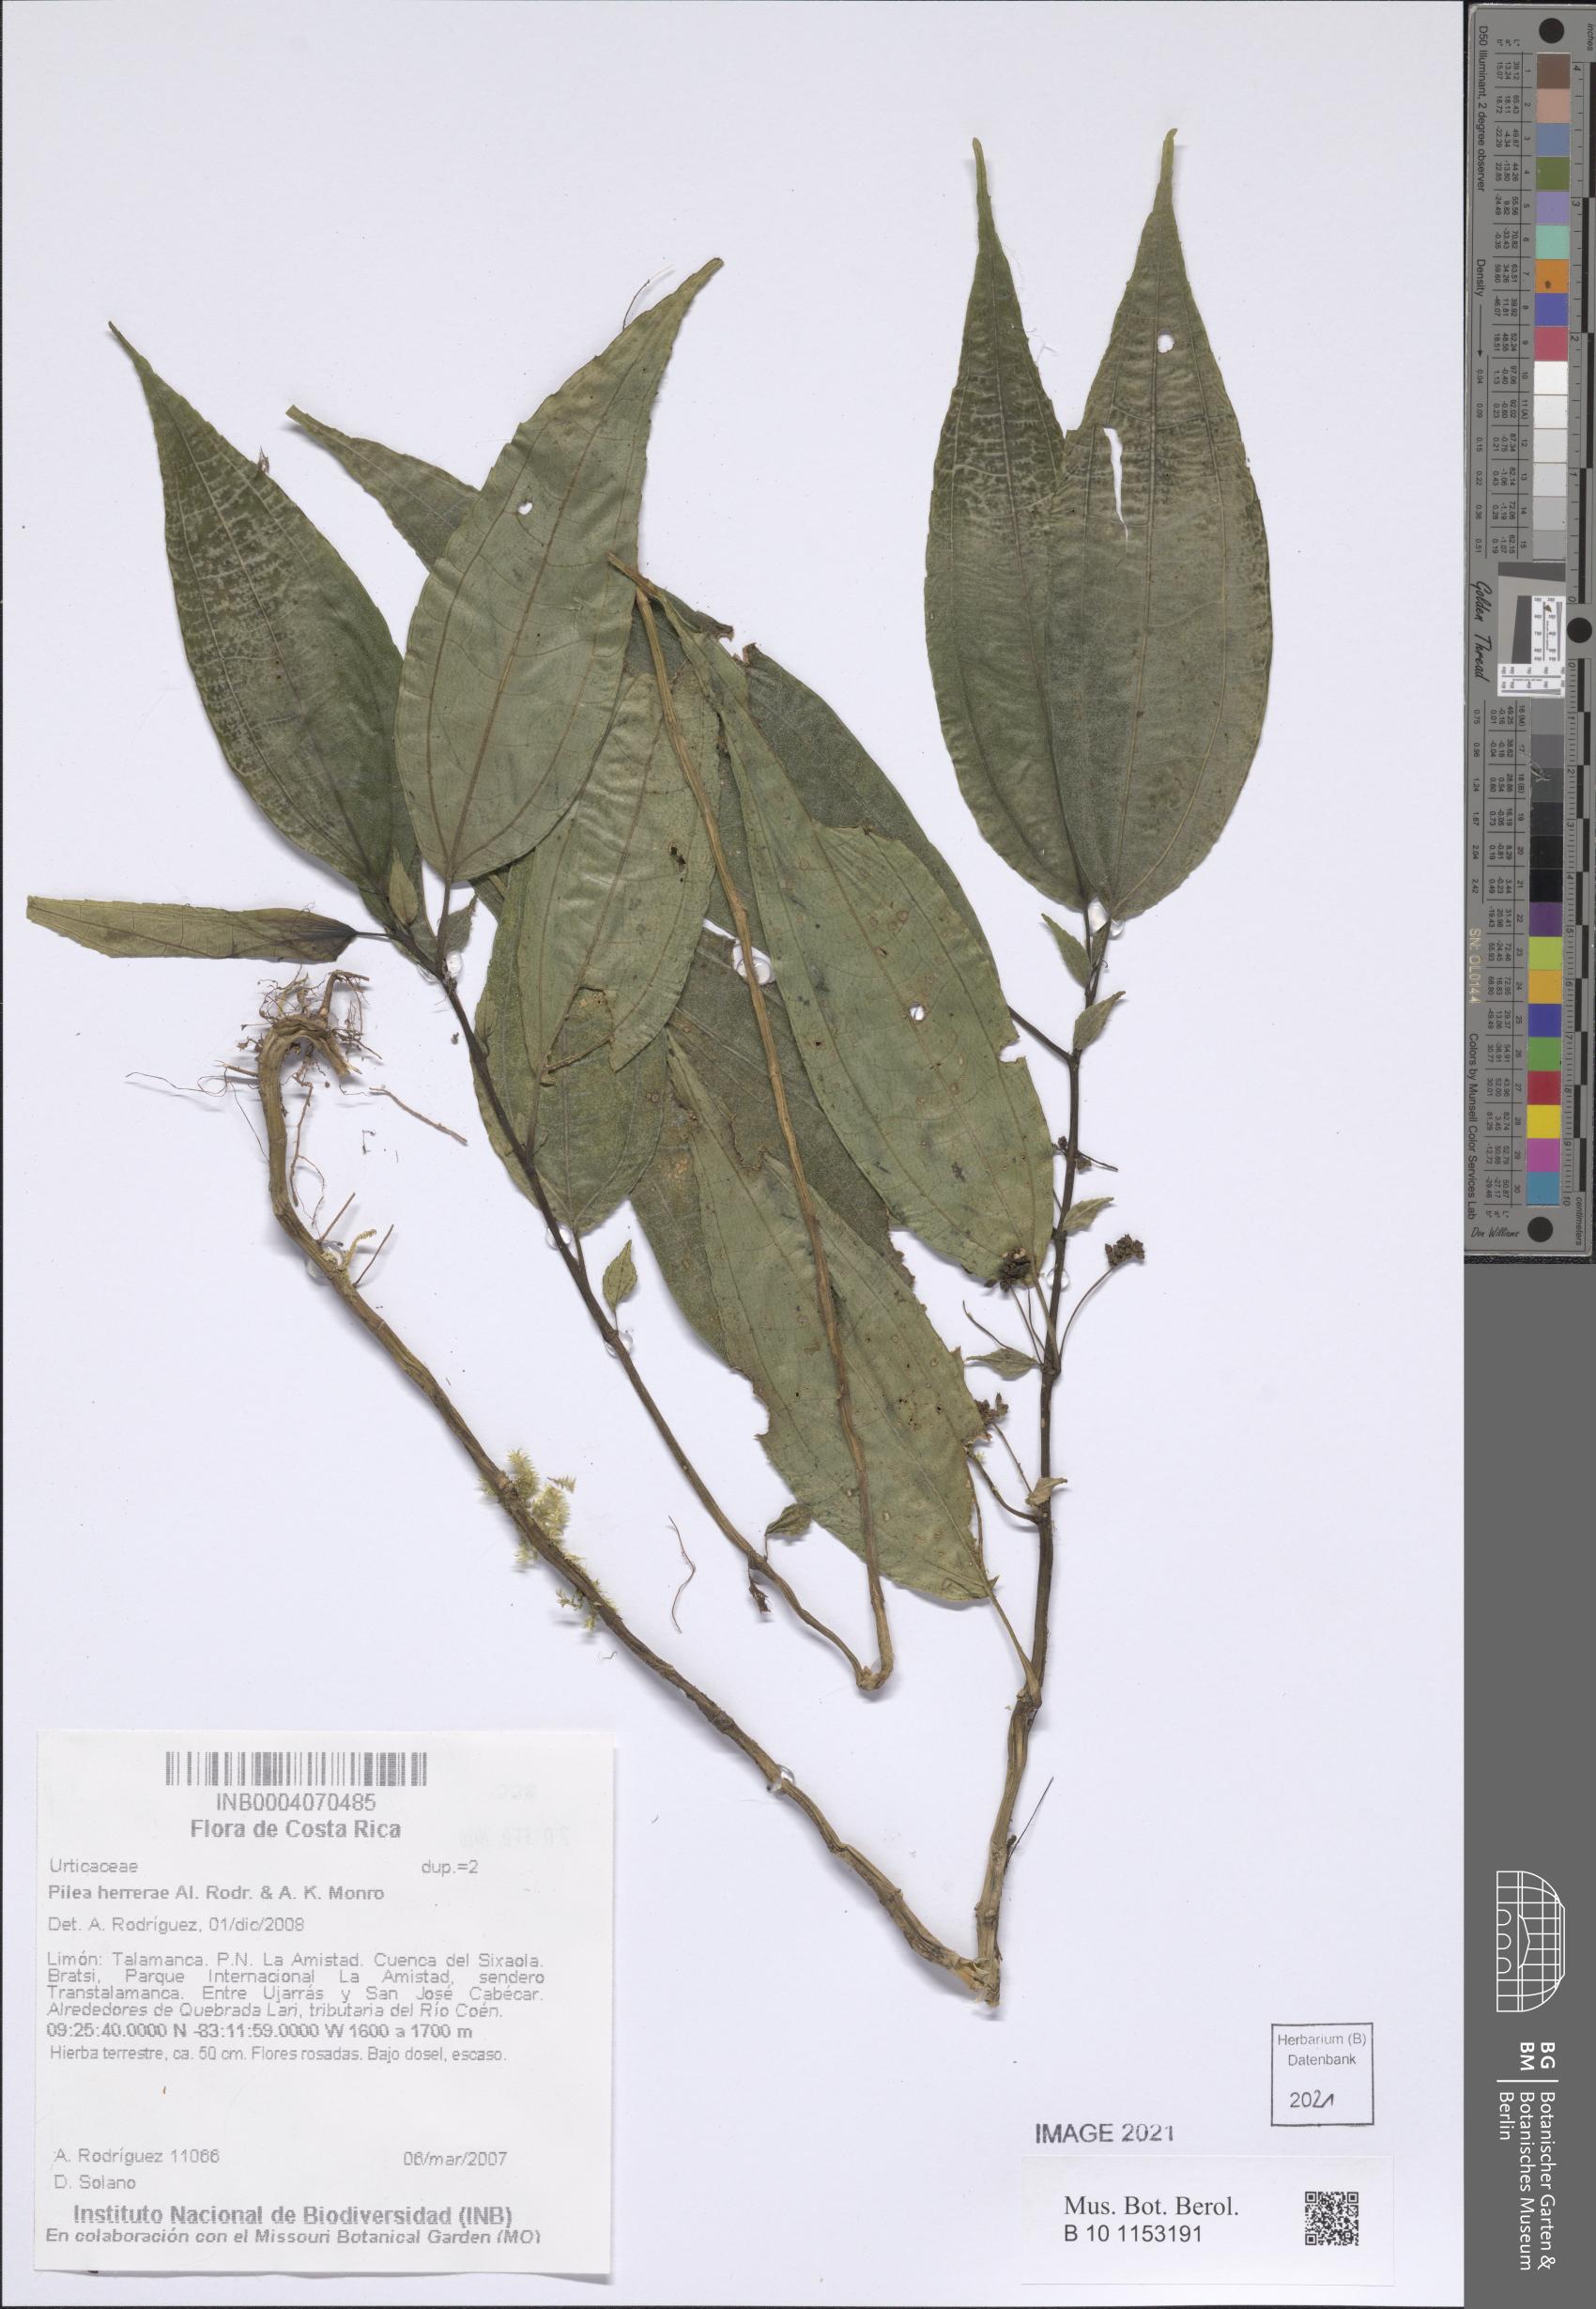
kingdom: Plantae
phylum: Tracheophyta
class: Magnoliopsida
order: Rosales
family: Urticaceae
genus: Pilea
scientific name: Pilea herrerae
